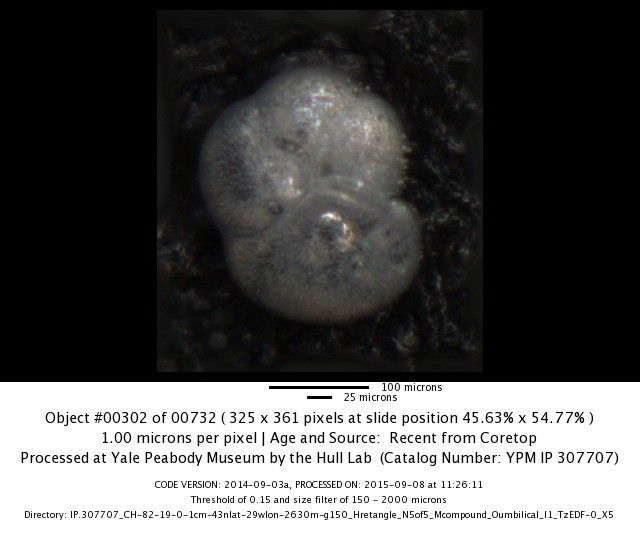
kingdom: Chromista
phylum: Foraminifera
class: Globothalamea
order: Rotaliida
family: Globorotaliidae
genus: Globorotalia
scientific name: Globorotalia scitula
